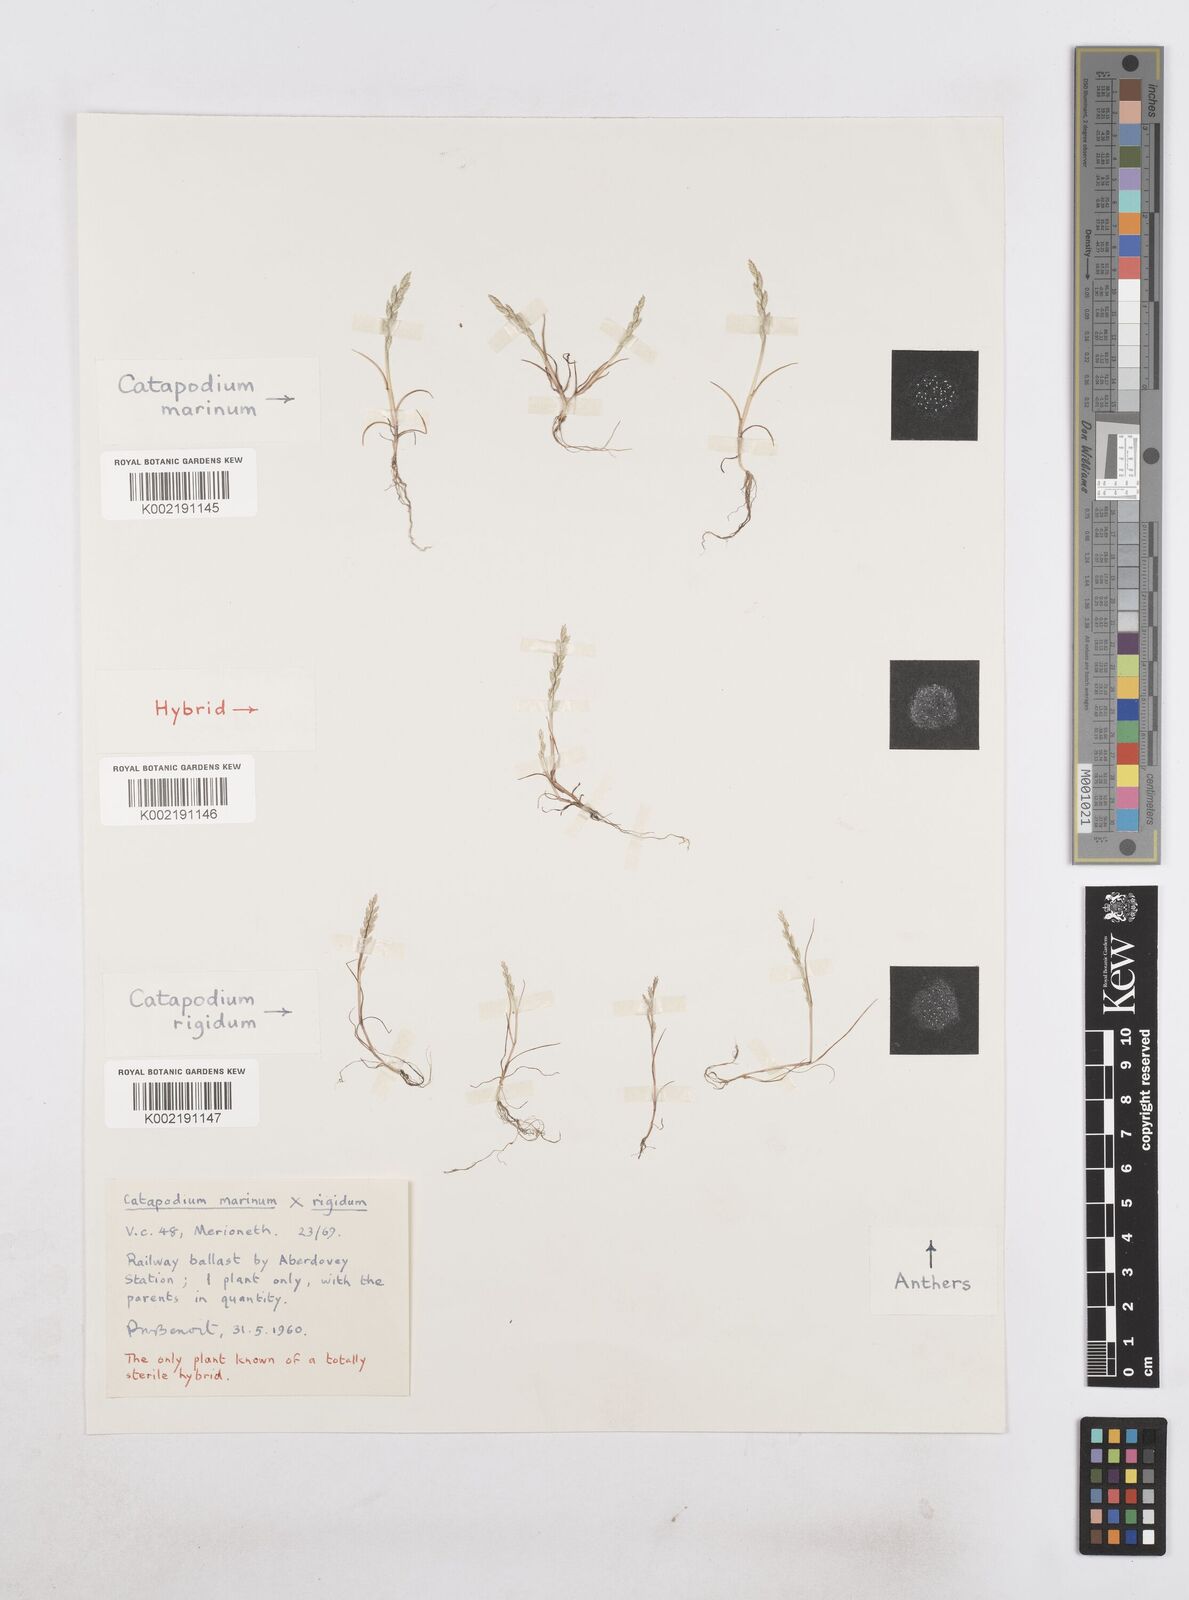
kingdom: Plantae
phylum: Tracheophyta
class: Liliopsida
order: Poales
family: Poaceae
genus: Catapodium
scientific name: Catapodium marinum
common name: Sea fern-grass
